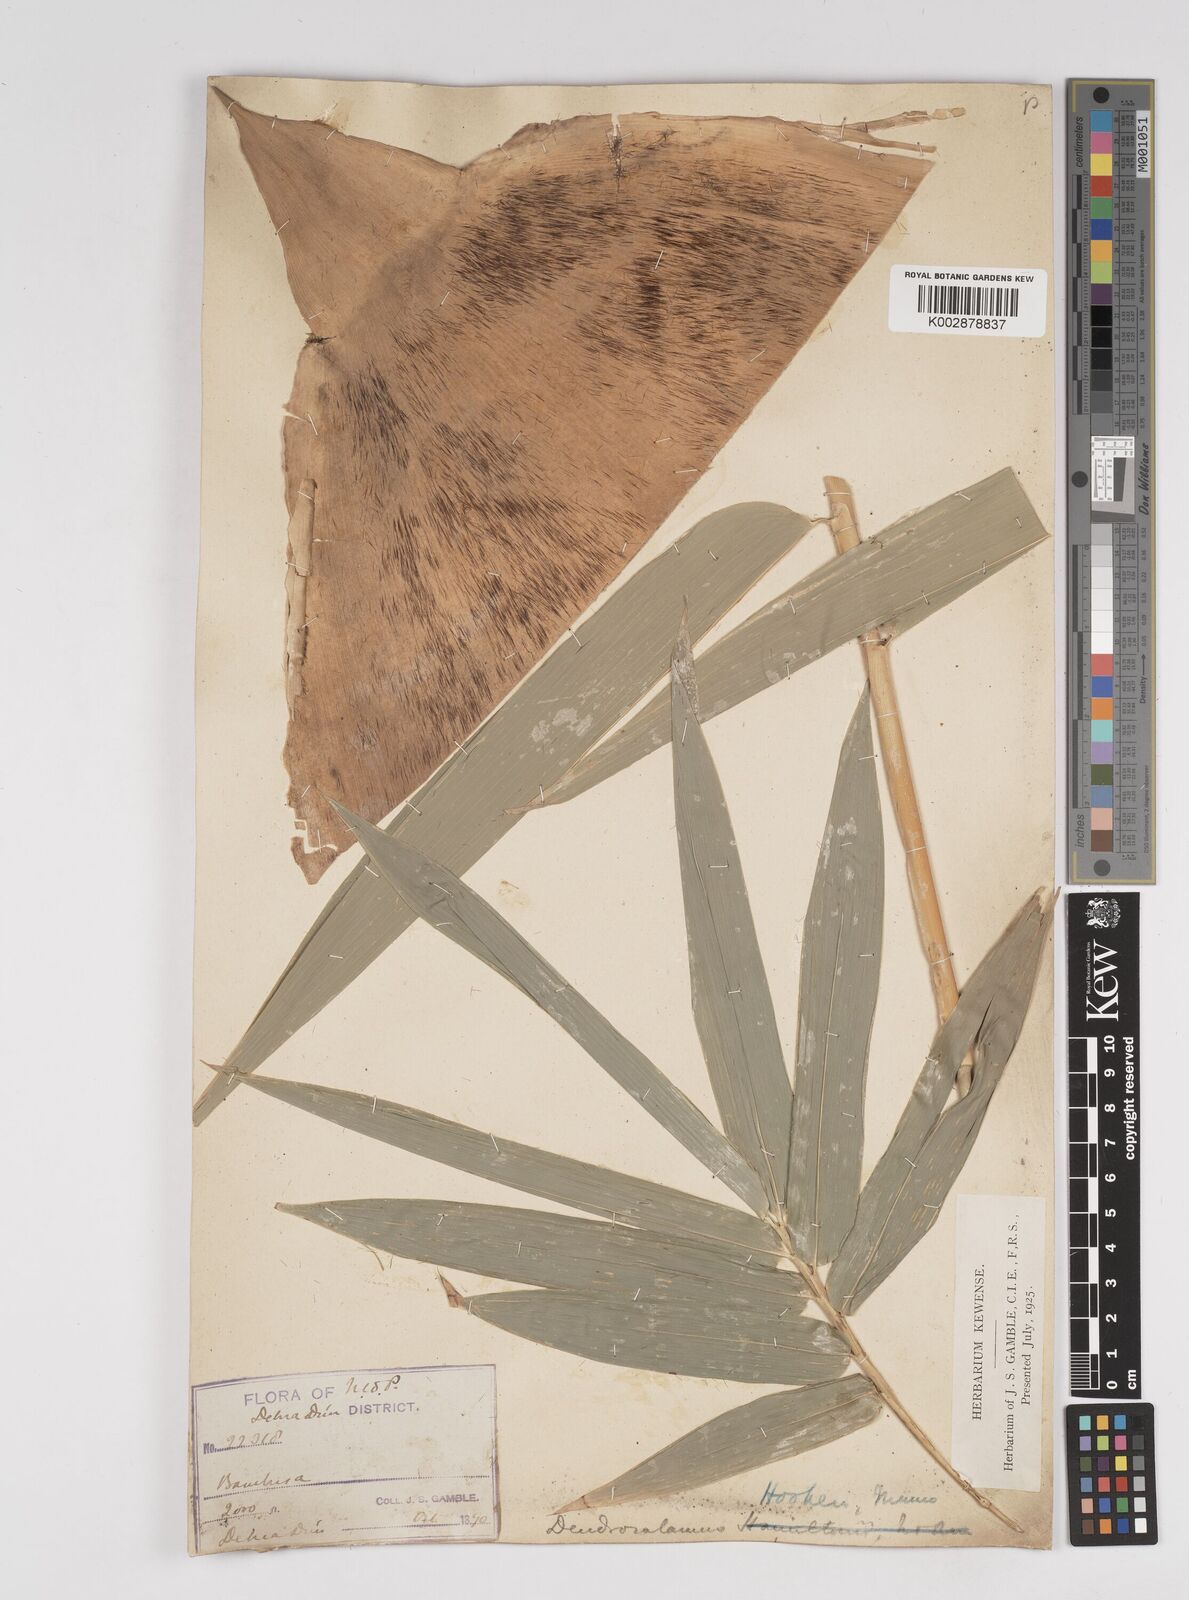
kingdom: Plantae
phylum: Tracheophyta
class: Liliopsida
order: Poales
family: Poaceae
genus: Dendrocalamus
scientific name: Dendrocalamus hookeri
